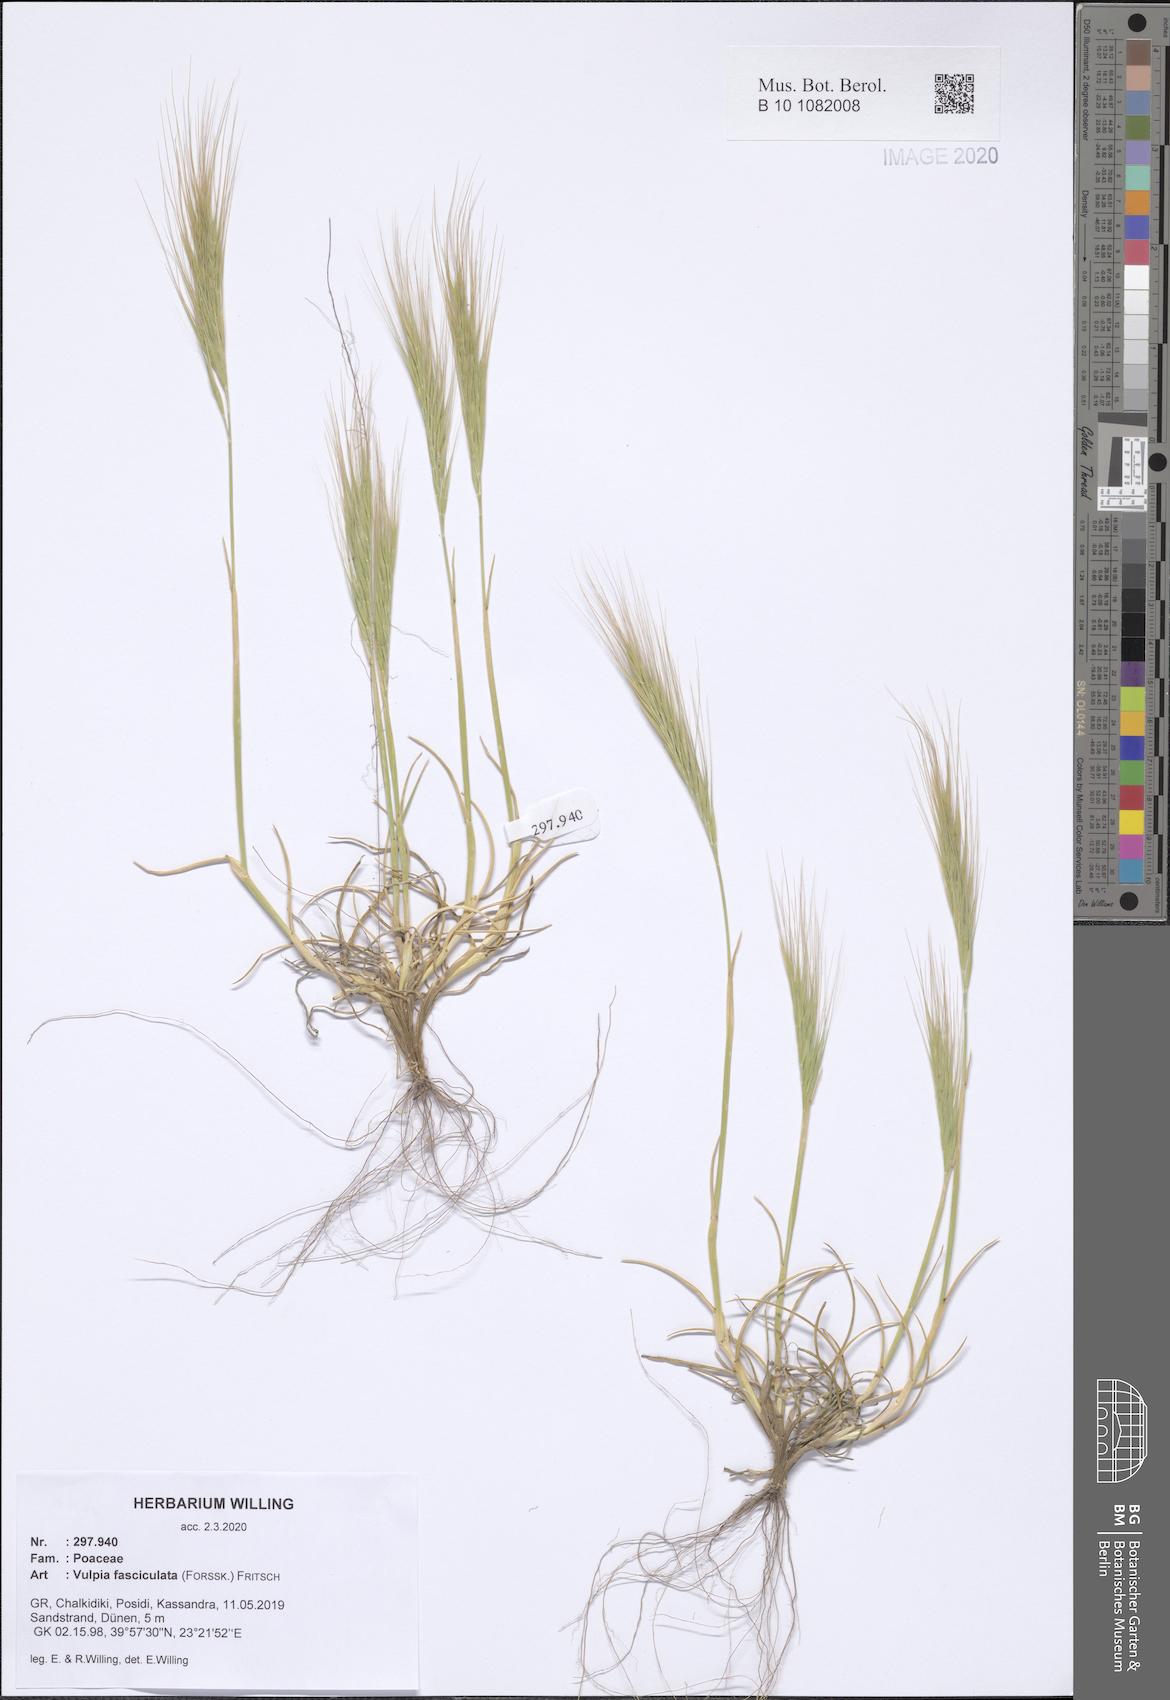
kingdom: Plantae
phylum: Tracheophyta
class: Liliopsida
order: Poales
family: Poaceae
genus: Festuca
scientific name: Festuca fasciculata
